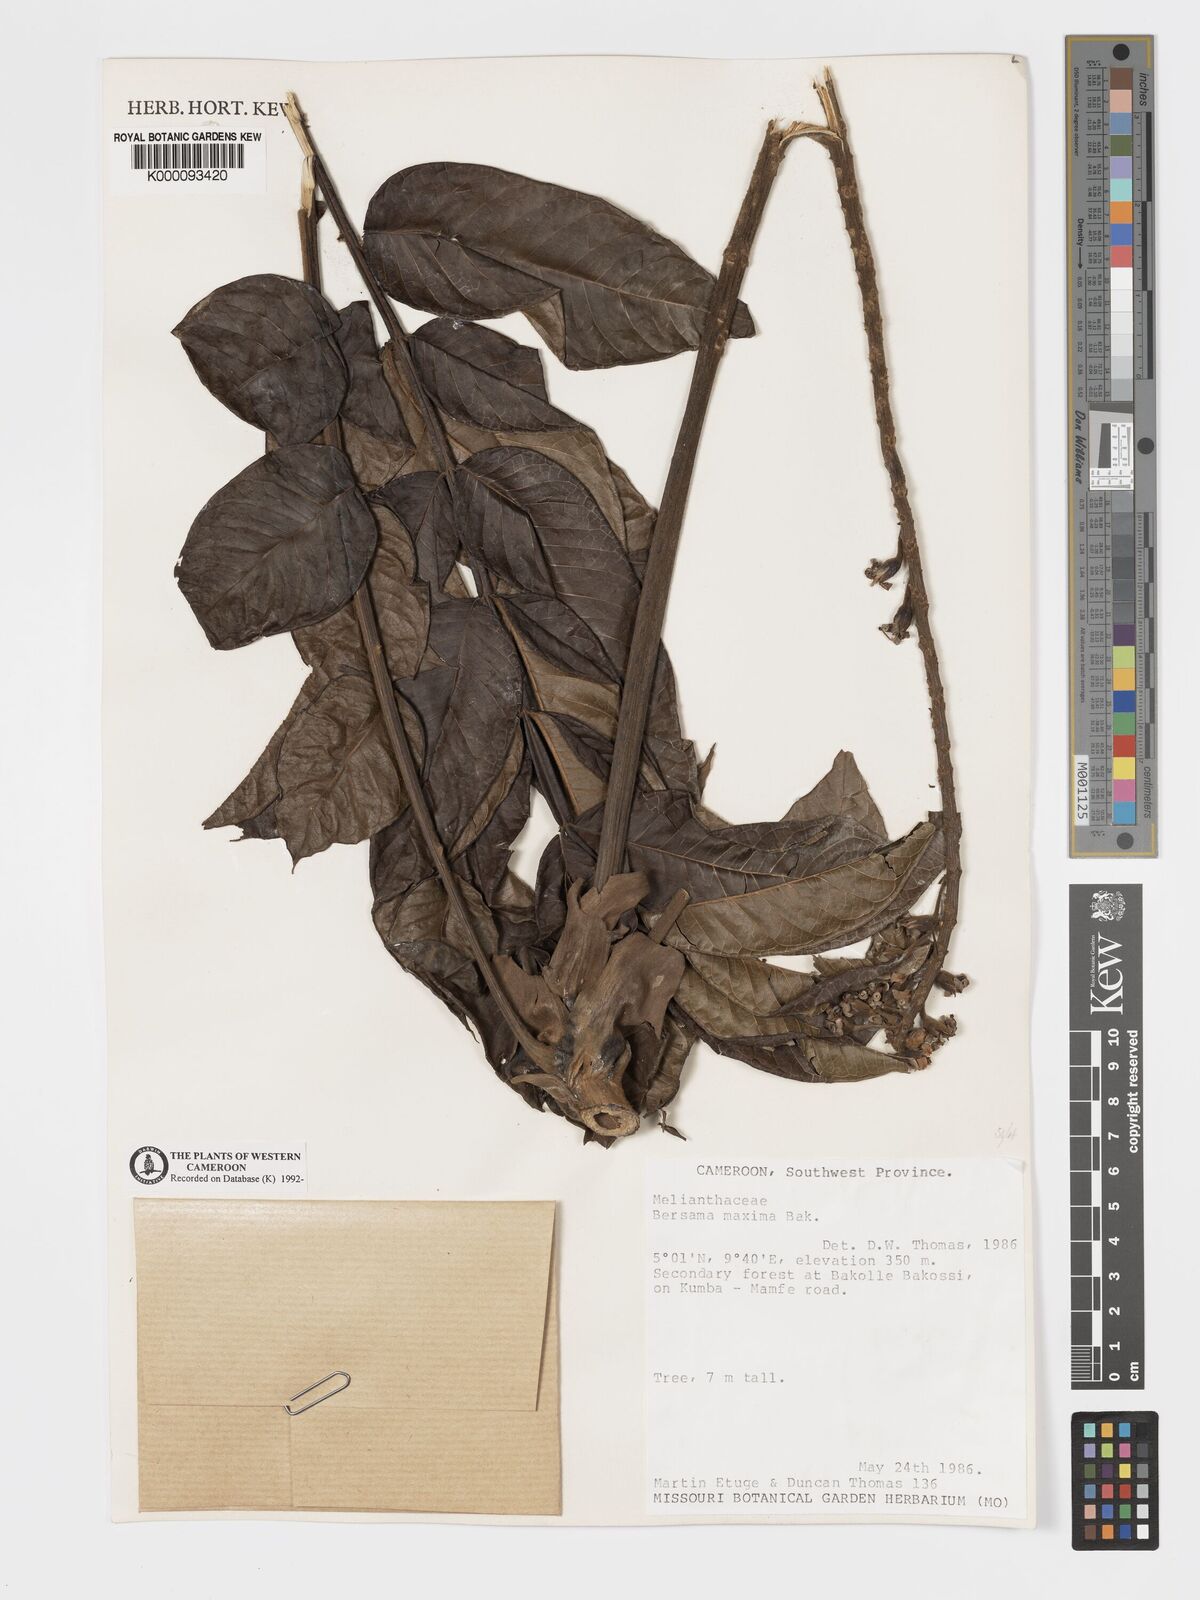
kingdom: Plantae
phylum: Tracheophyta
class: Magnoliopsida
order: Geraniales
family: Melianthaceae
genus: Bersama
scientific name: Bersama abyssinica
